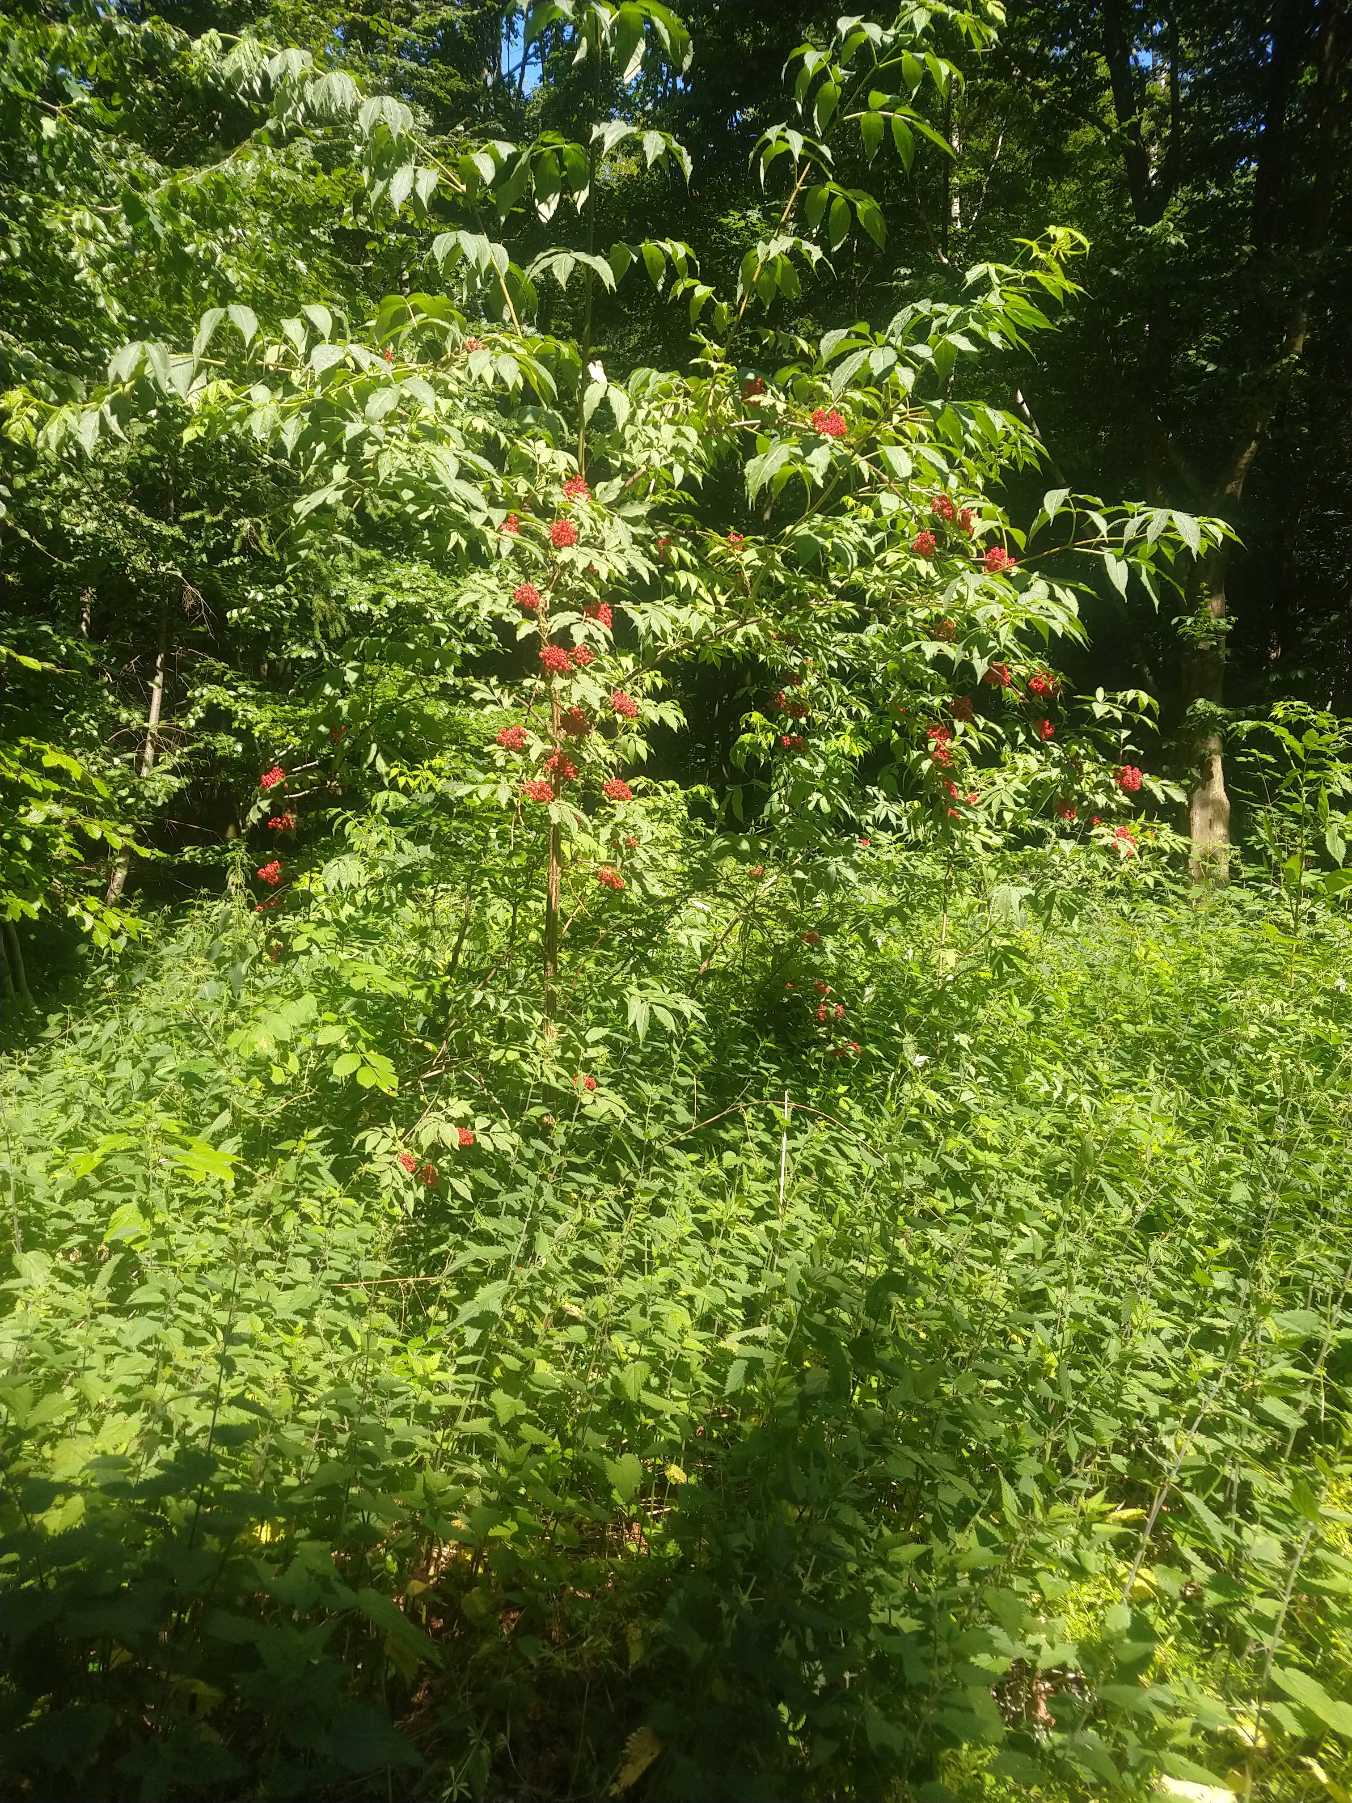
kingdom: Plantae
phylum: Tracheophyta
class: Magnoliopsida
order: Dipsacales
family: Viburnaceae
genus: Sambucus
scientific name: Sambucus racemosa
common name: Drue-hyld
